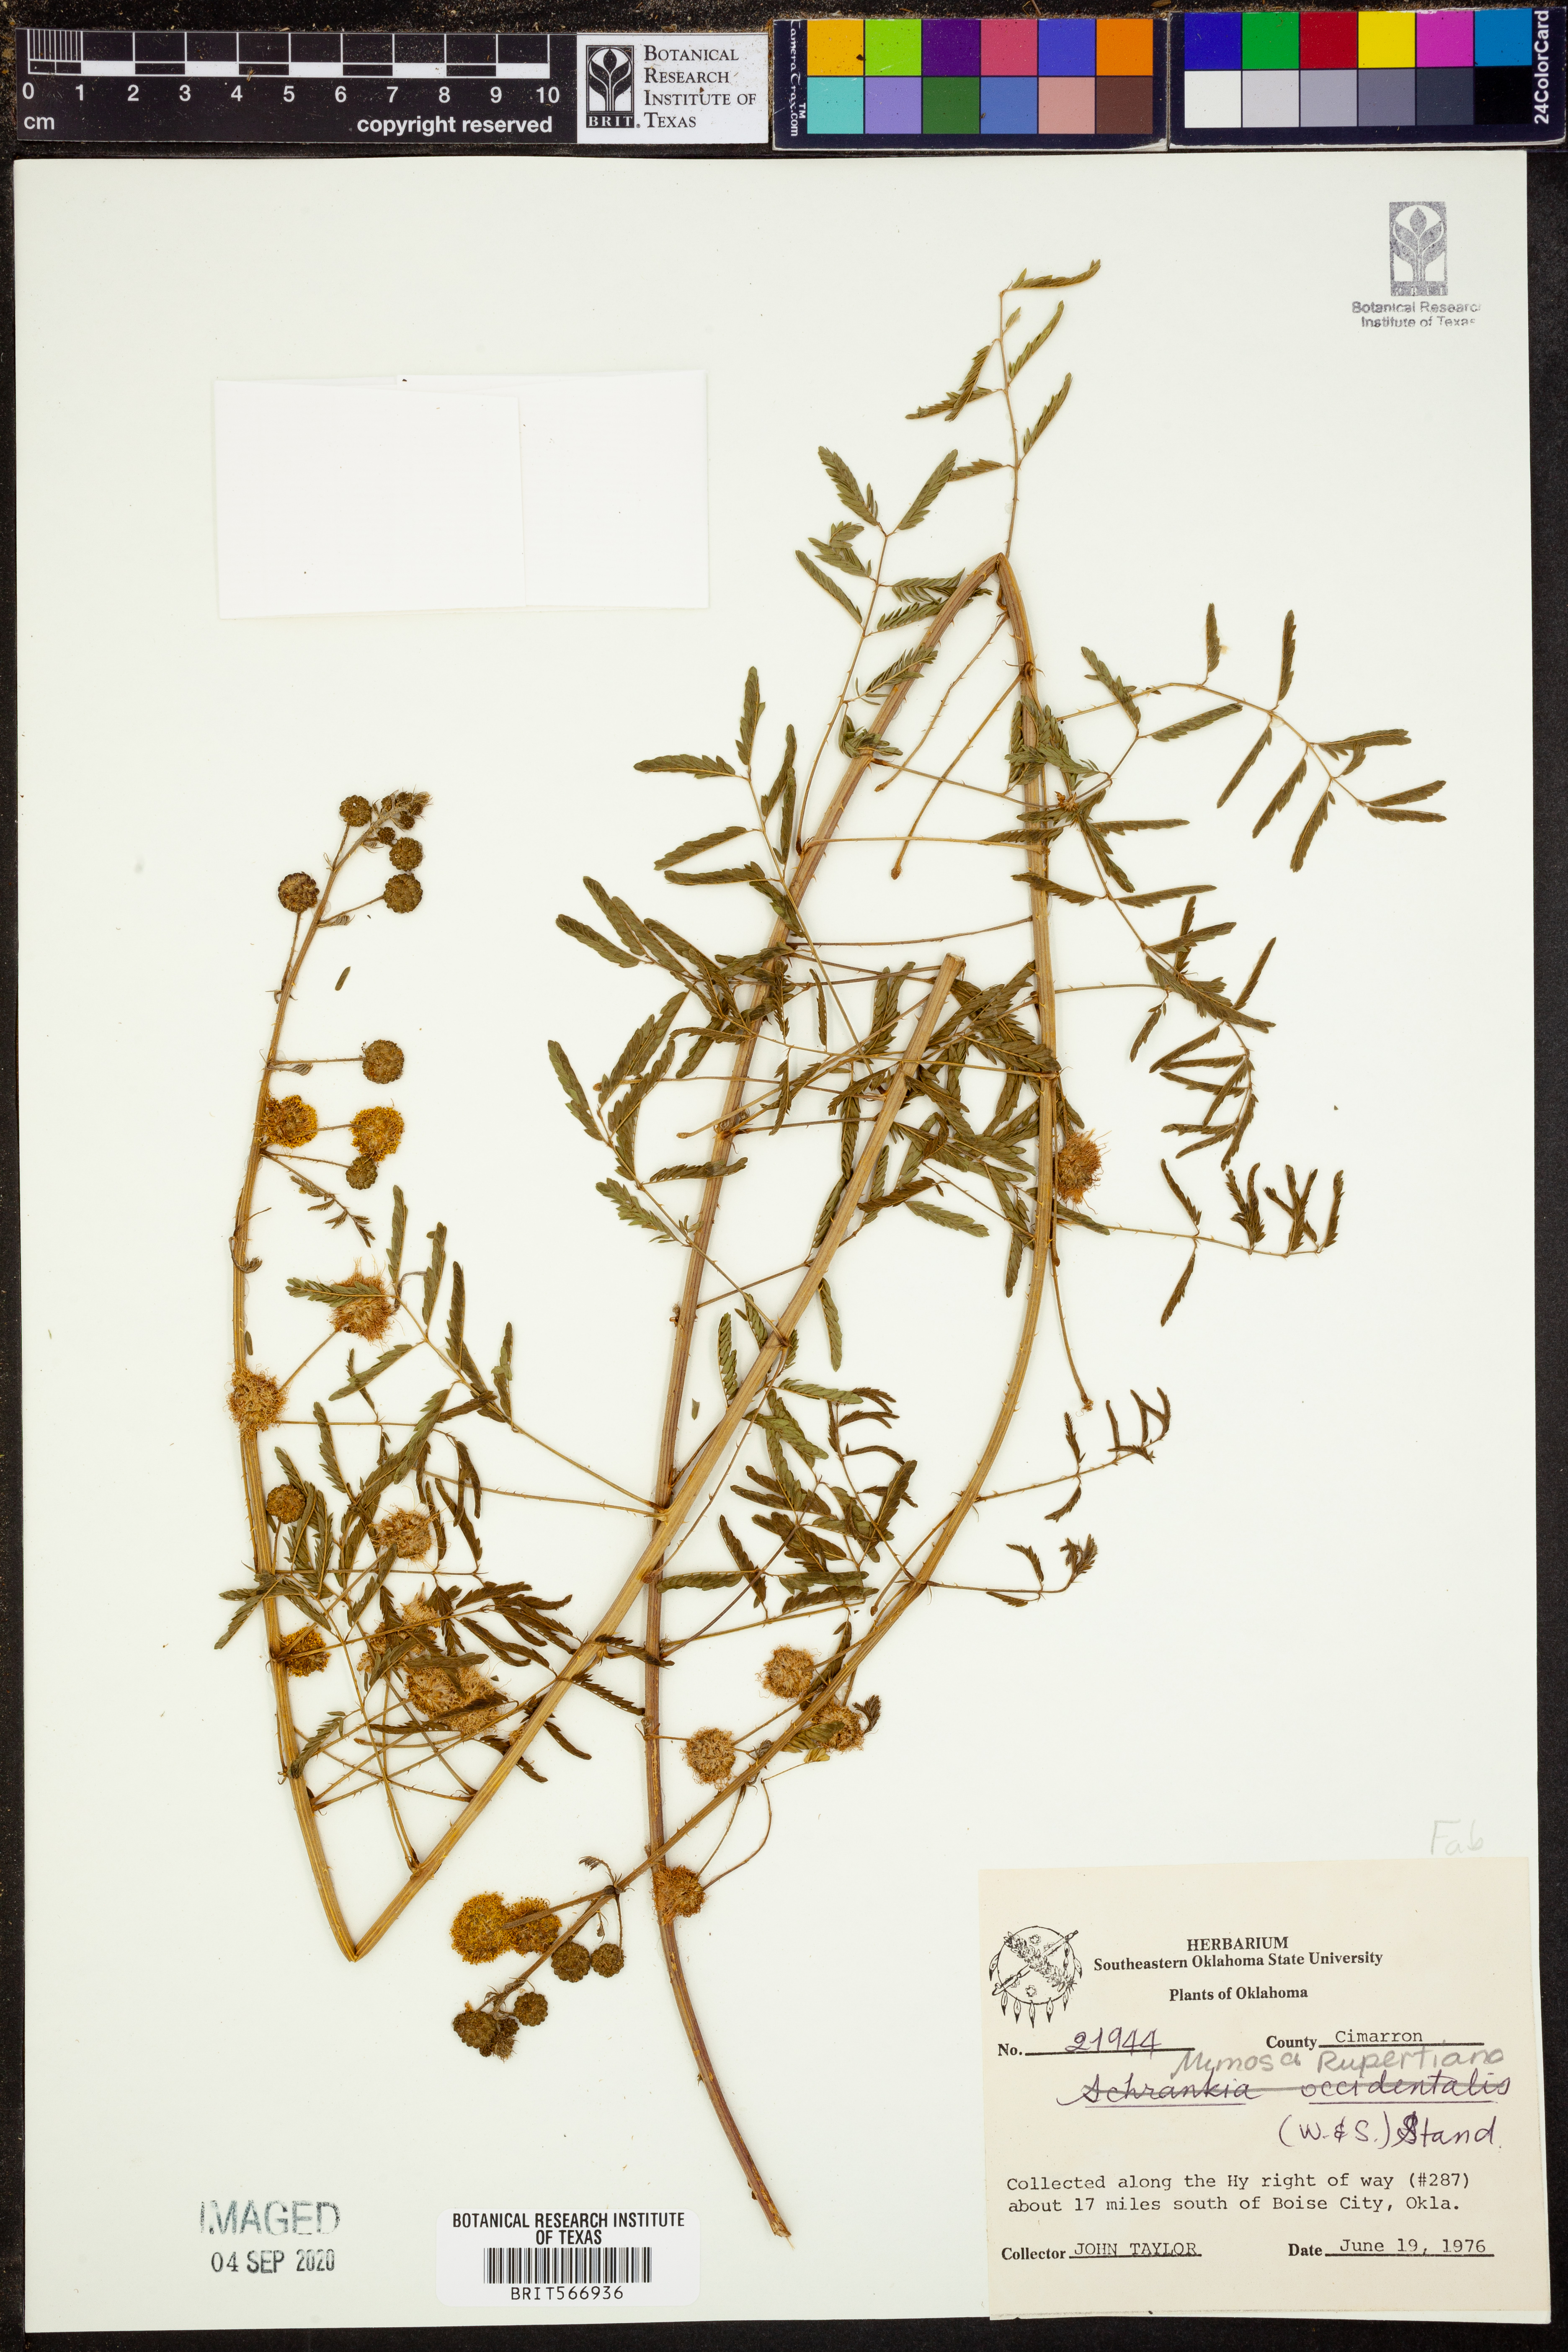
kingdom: Plantae
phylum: Tracheophyta
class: Magnoliopsida
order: Fabales
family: Fabaceae
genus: Mimosa
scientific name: Mimosa quadrivalvis
